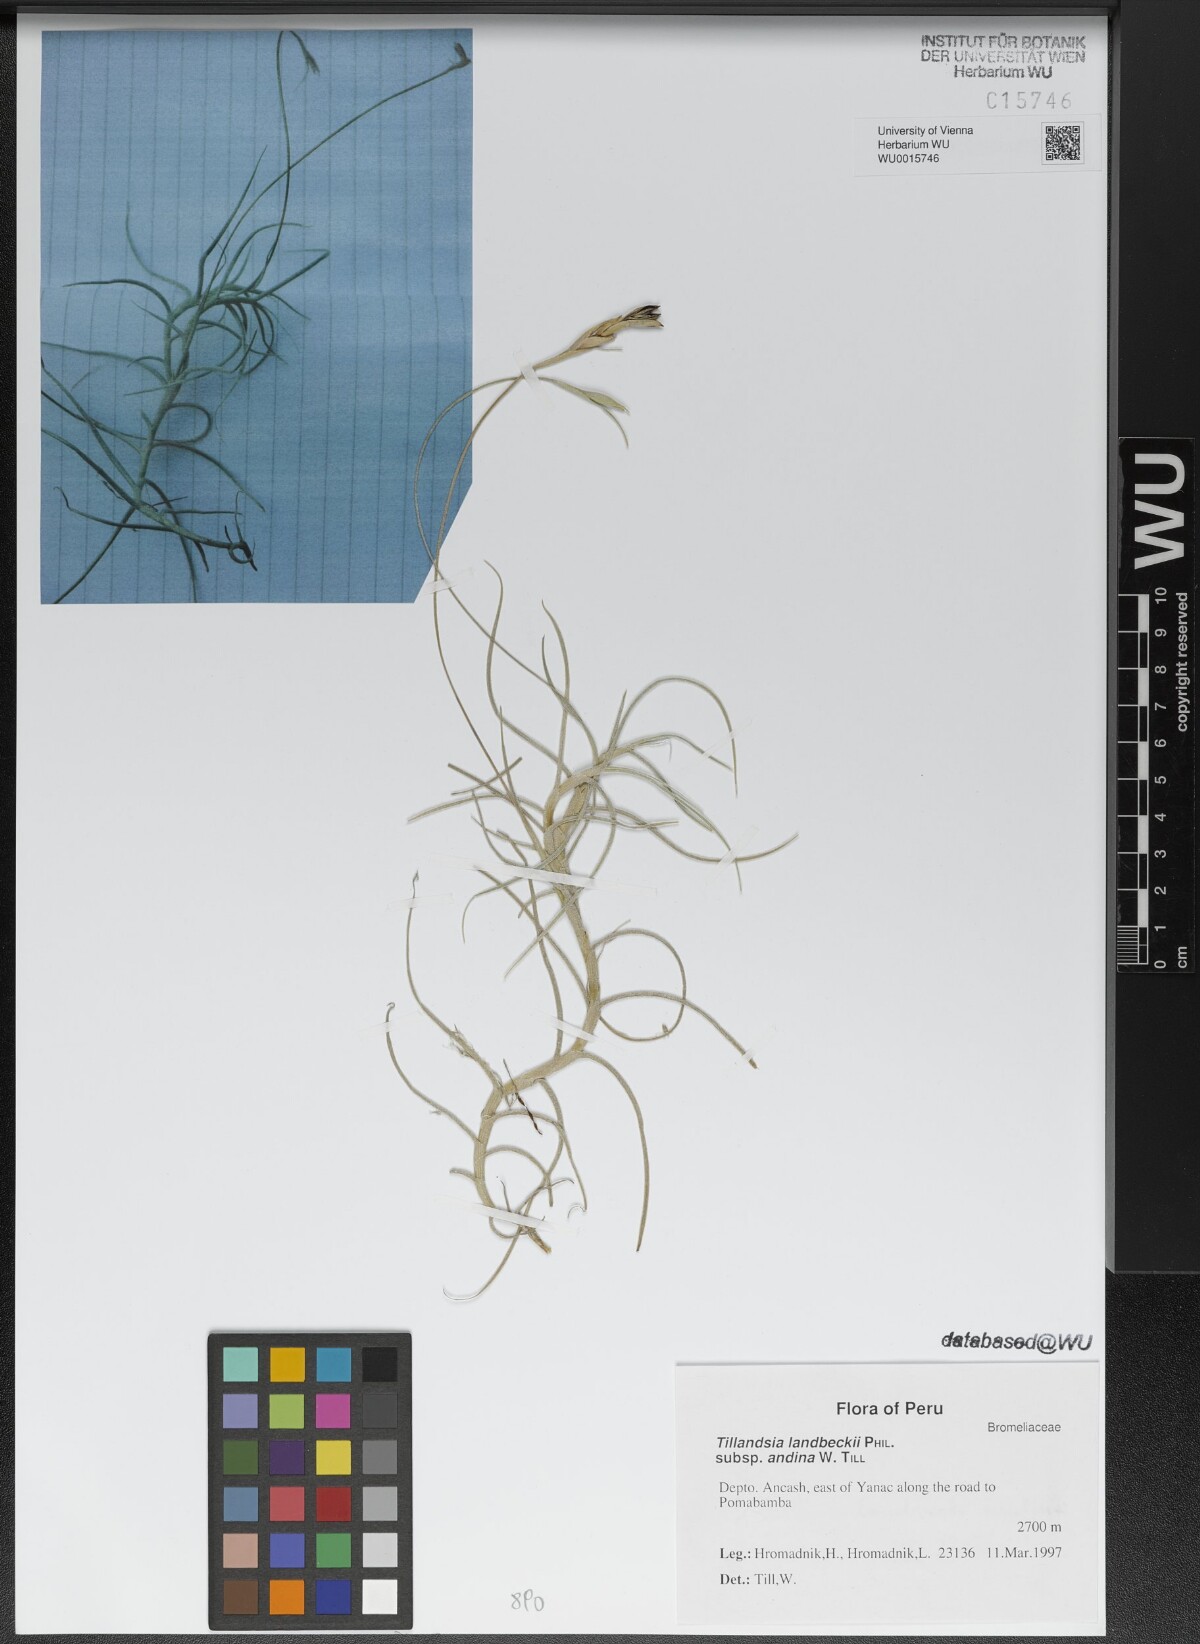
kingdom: Plantae
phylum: Tracheophyta
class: Liliopsida
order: Poales
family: Bromeliaceae
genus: Tillandsia
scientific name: Tillandsia landbeckii
